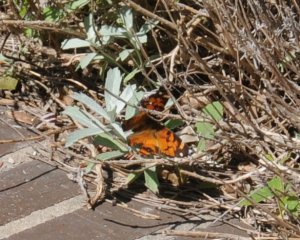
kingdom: Animalia
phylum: Arthropoda
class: Insecta
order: Lepidoptera
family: Nymphalidae
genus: Vanessa
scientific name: Vanessa virginiensis
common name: American Lady
